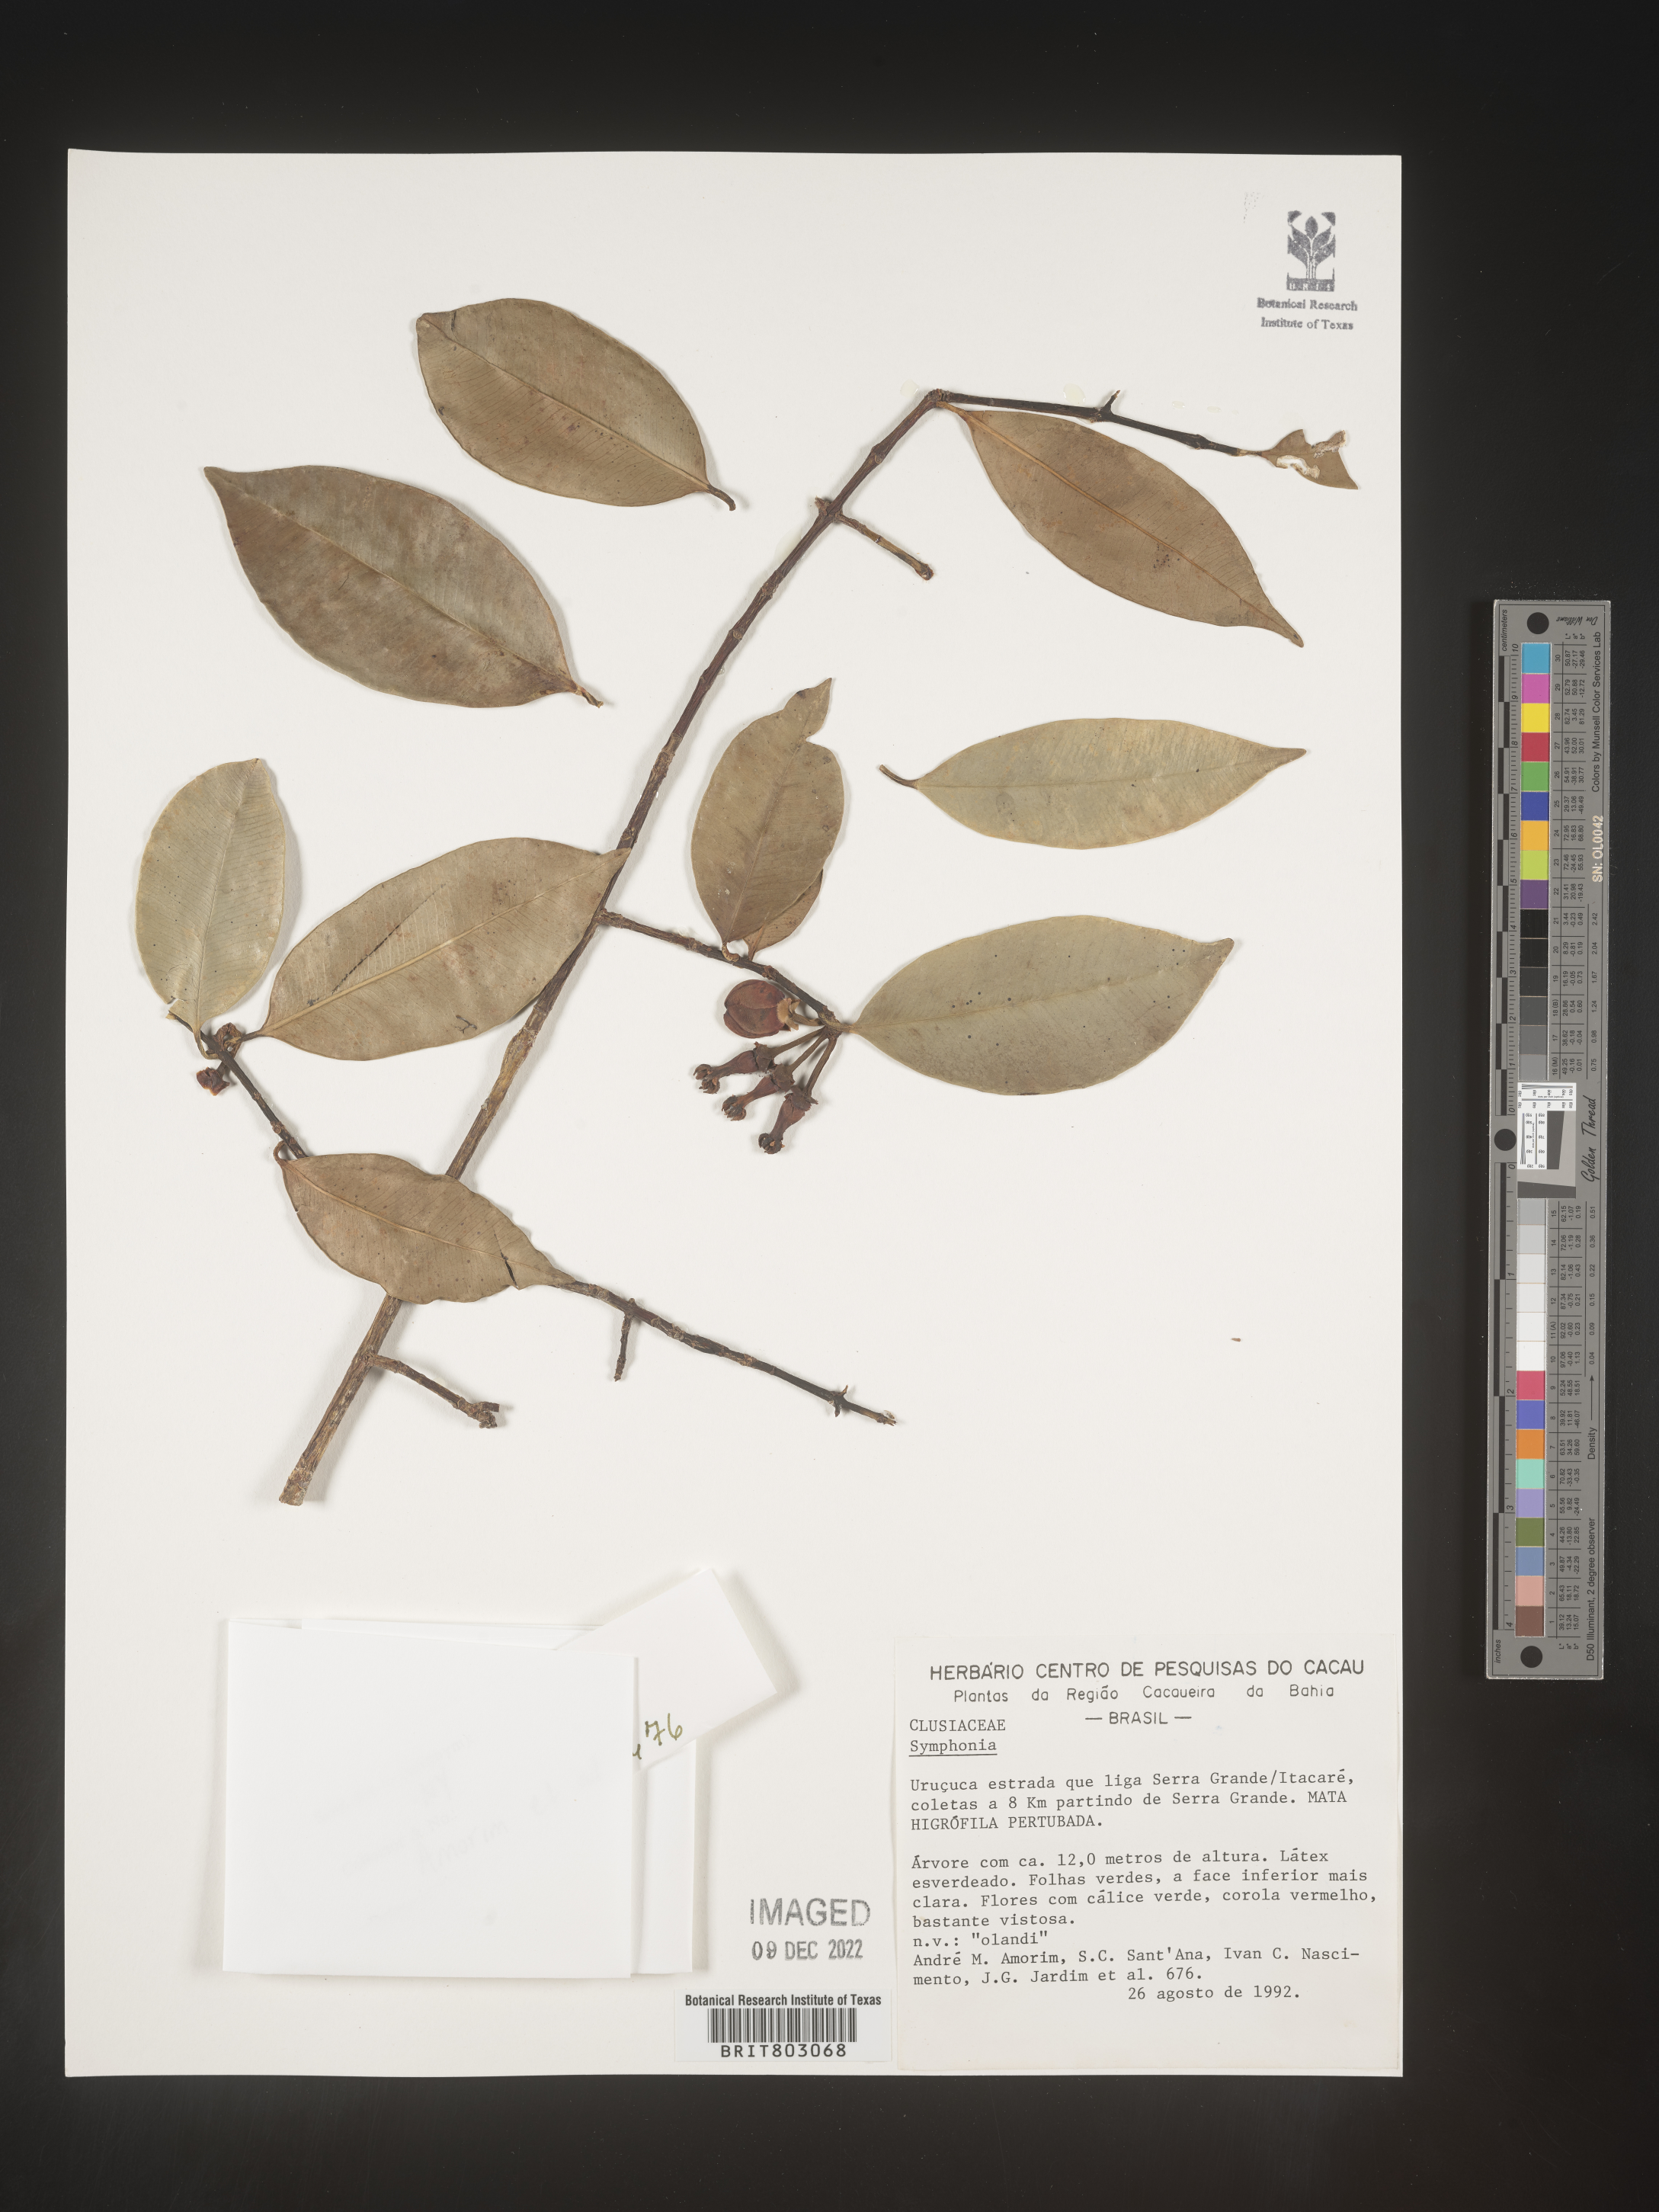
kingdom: Plantae
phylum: Tracheophyta
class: Magnoliopsida
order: Malpighiales
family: Clusiaceae
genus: Symphonia
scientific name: Symphonia
